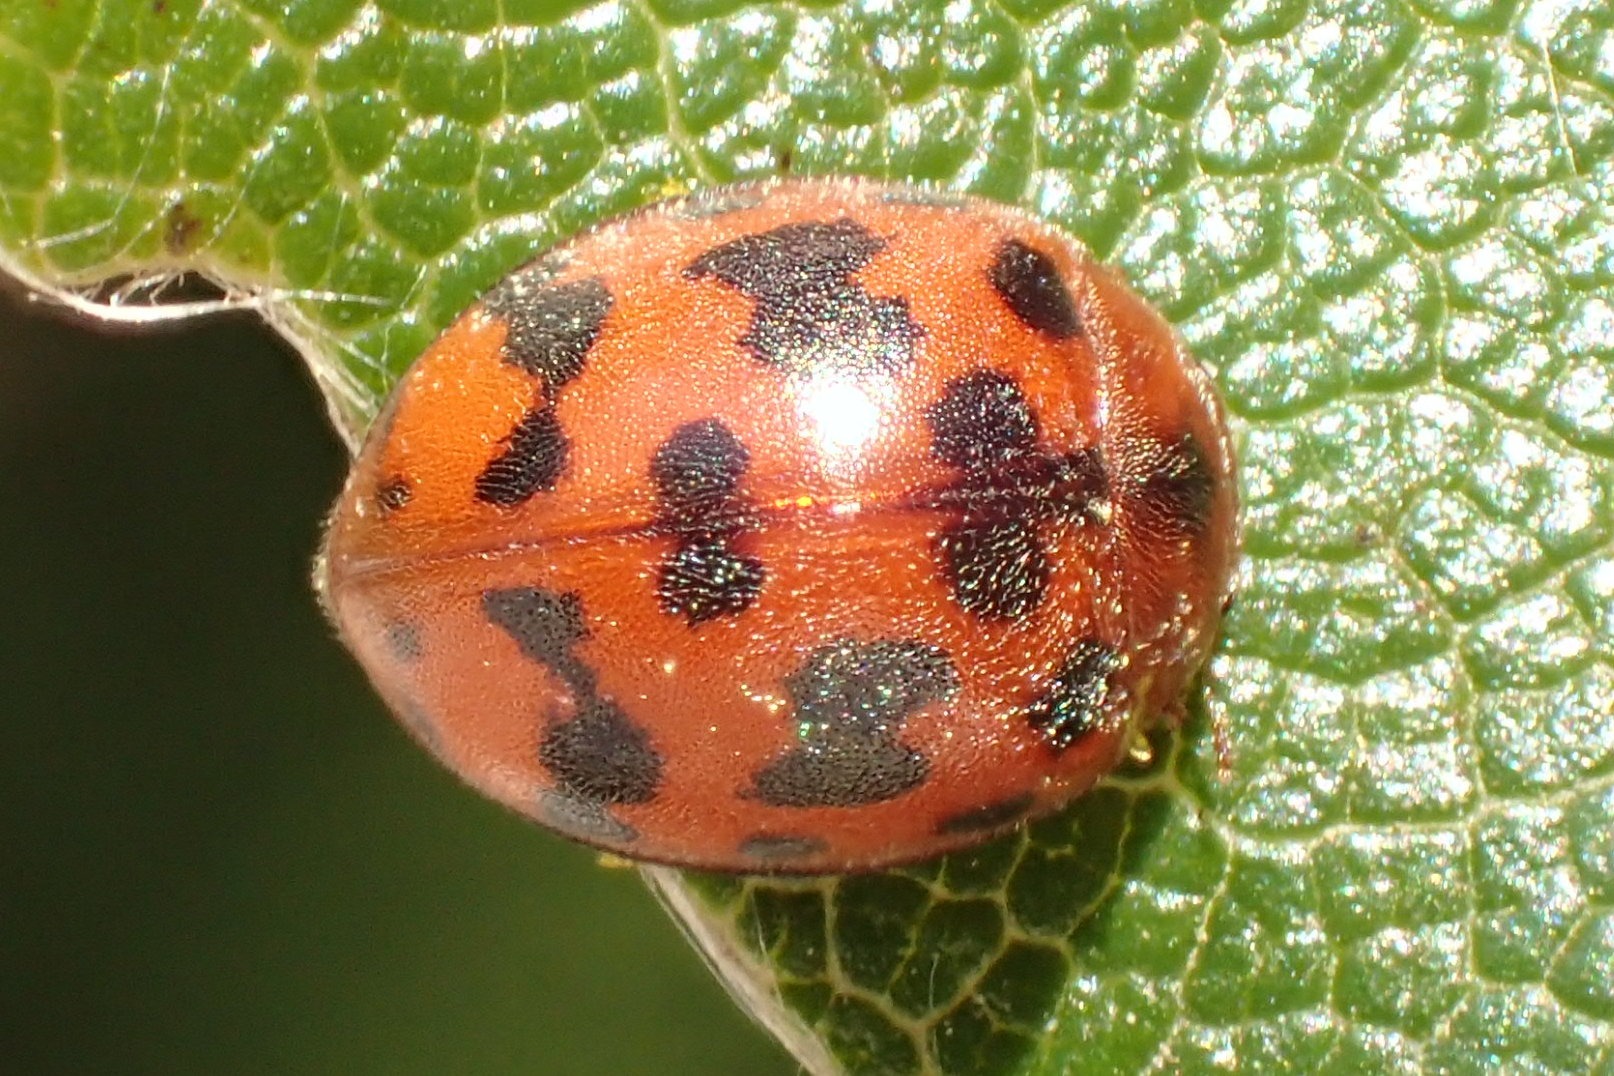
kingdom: Animalia
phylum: Arthropoda
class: Insecta
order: Coleoptera
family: Coccinellidae
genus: Subcoccinella
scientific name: Subcoccinella vigintiquatuorpunctata
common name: Fireogtyveplettet mariehøne
